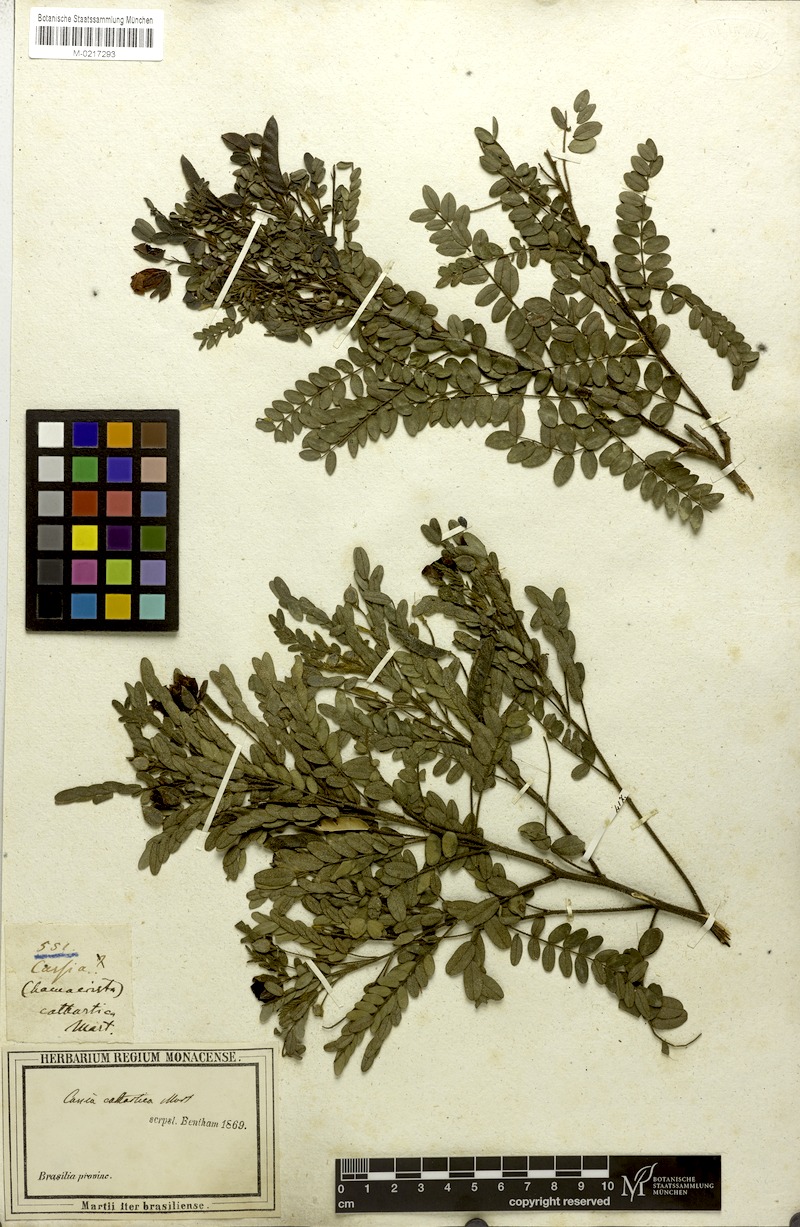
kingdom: Plantae
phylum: Tracheophyta
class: Magnoliopsida
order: Fabales
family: Fabaceae
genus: Chamaecrista
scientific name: Chamaecrista cathartica
